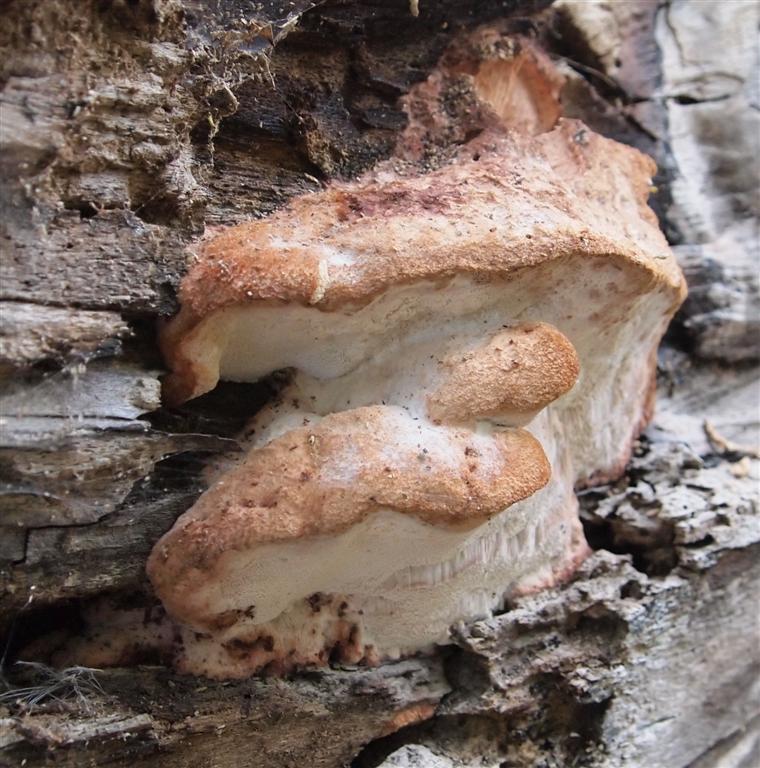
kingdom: Fungi
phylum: Basidiomycota
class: Agaricomycetes
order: Polyporales
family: Meruliaceae
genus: Pappia
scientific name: Pappia fissilis
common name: rosa fedtporesvamp
